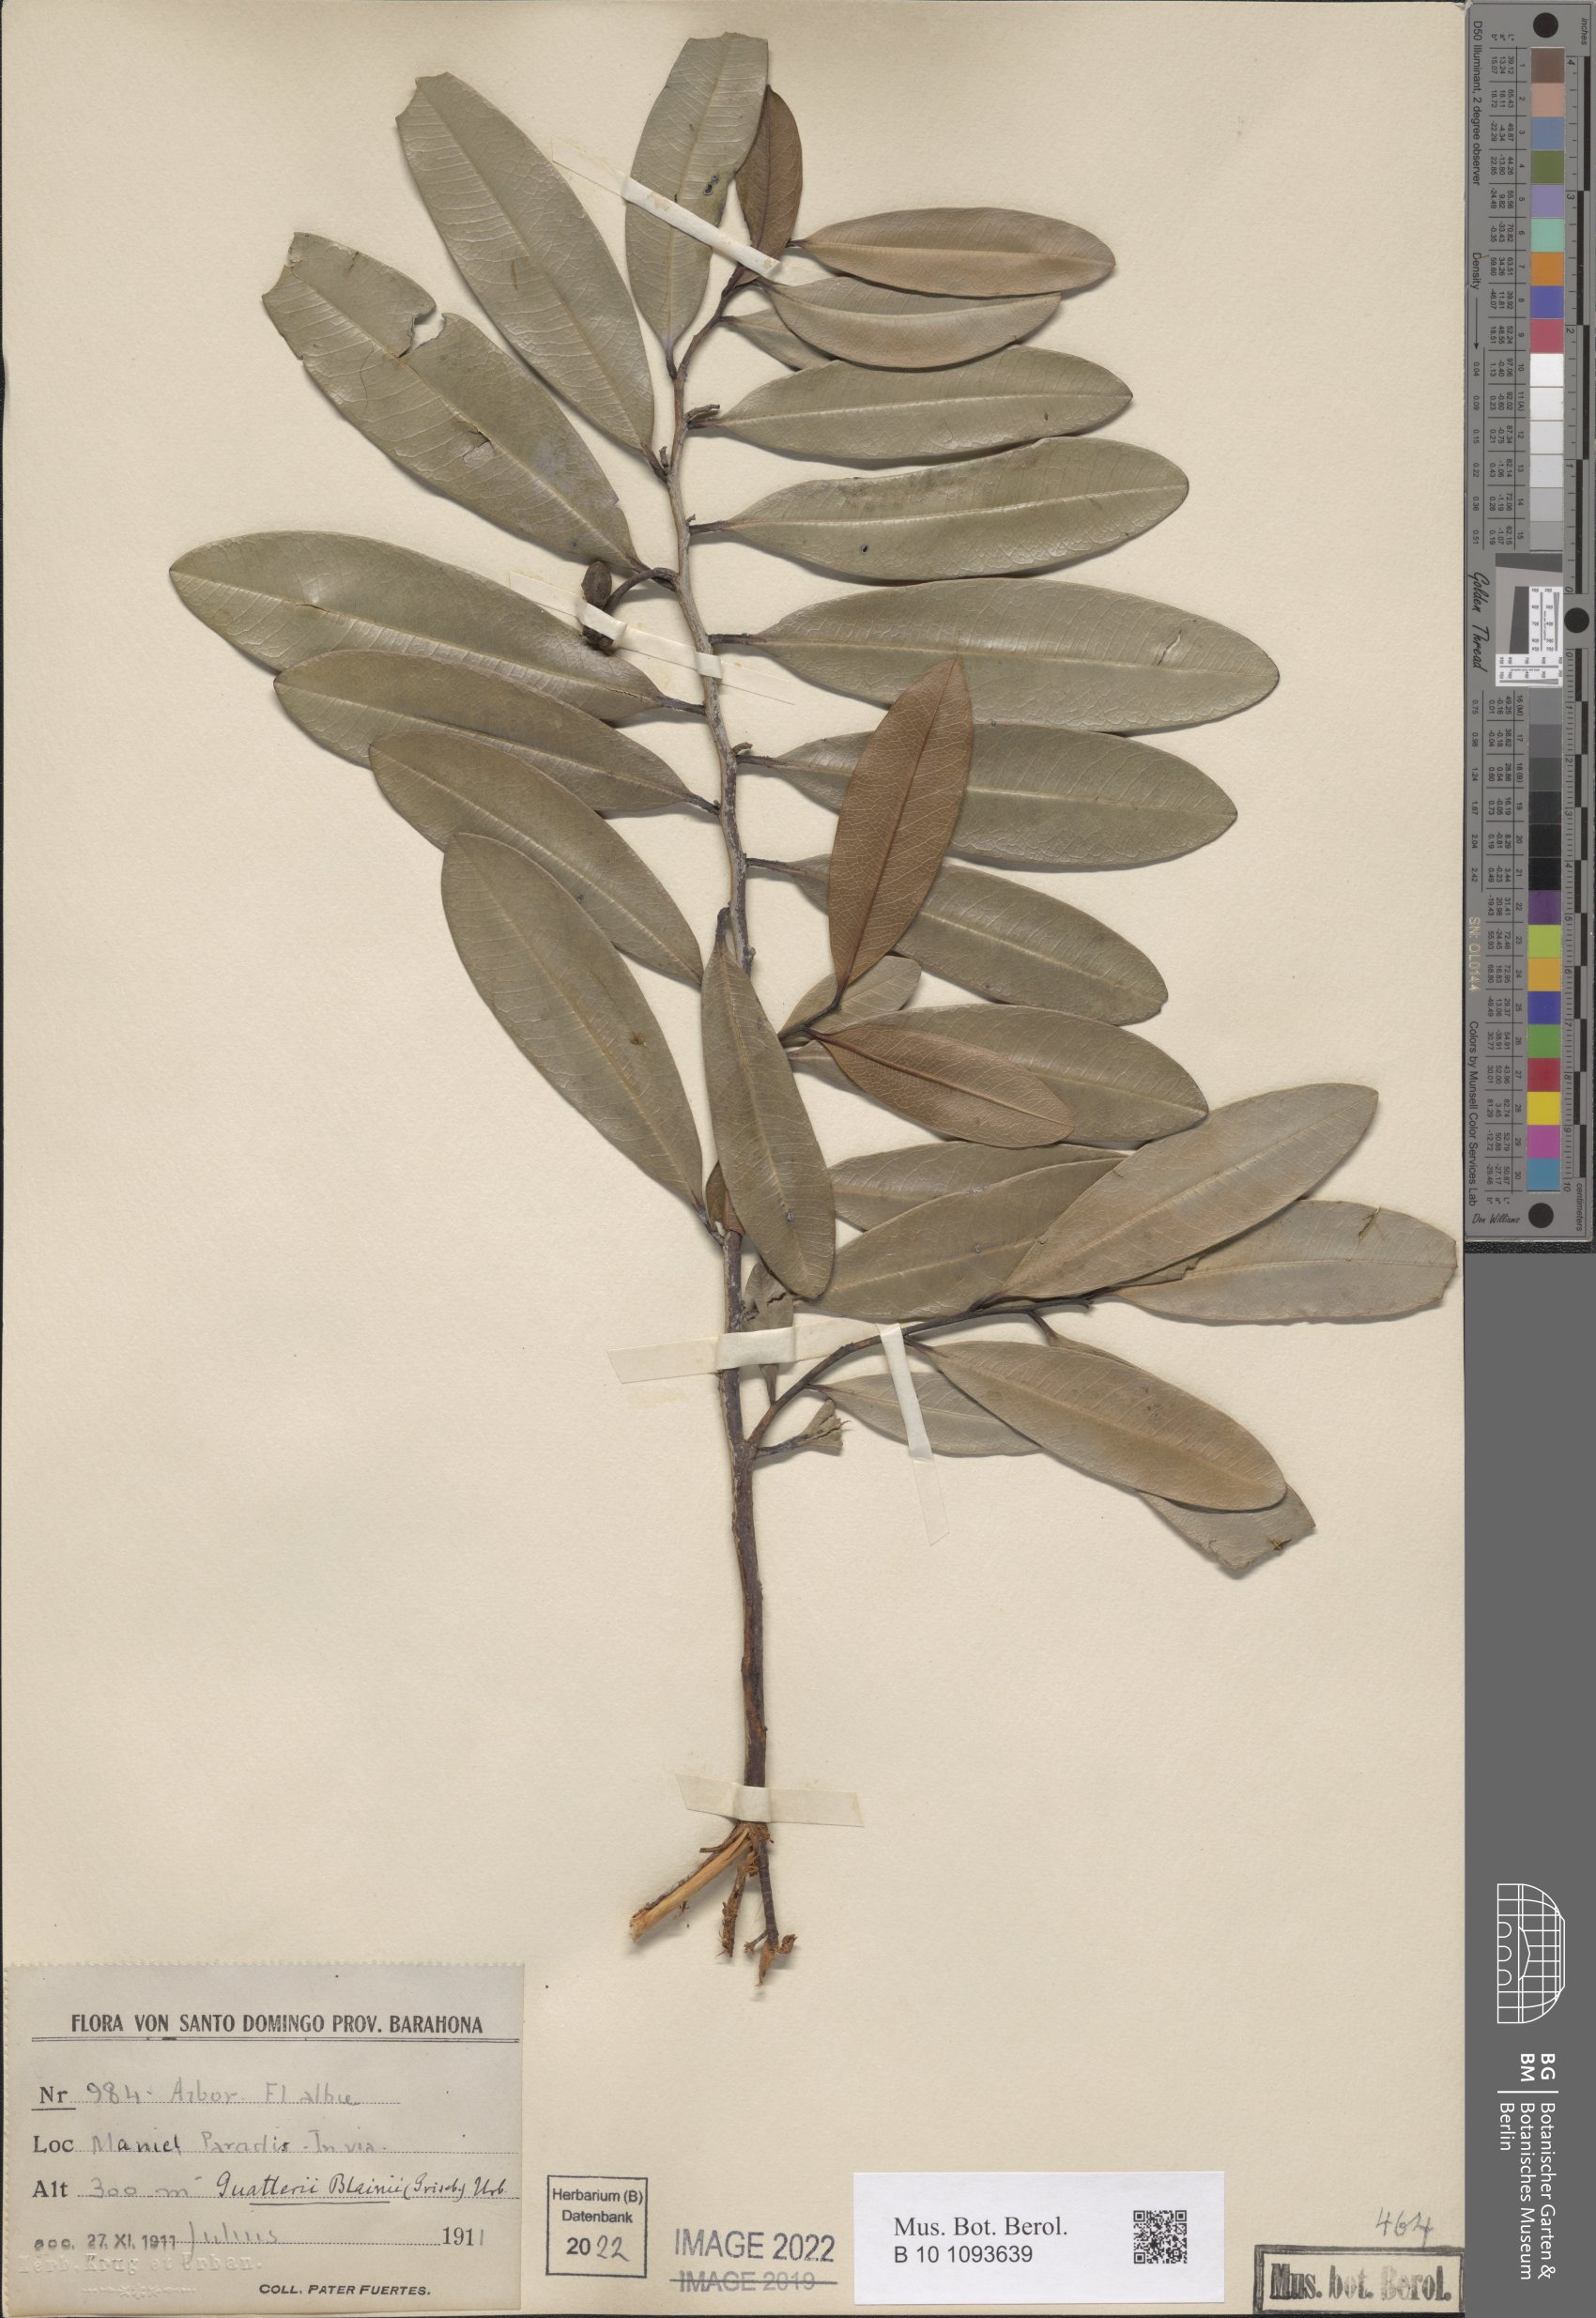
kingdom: Plantae
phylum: Tracheophyta
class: Magnoliopsida
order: Magnoliales
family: Annonaceae
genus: Guatteria
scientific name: Guatteria blainii
